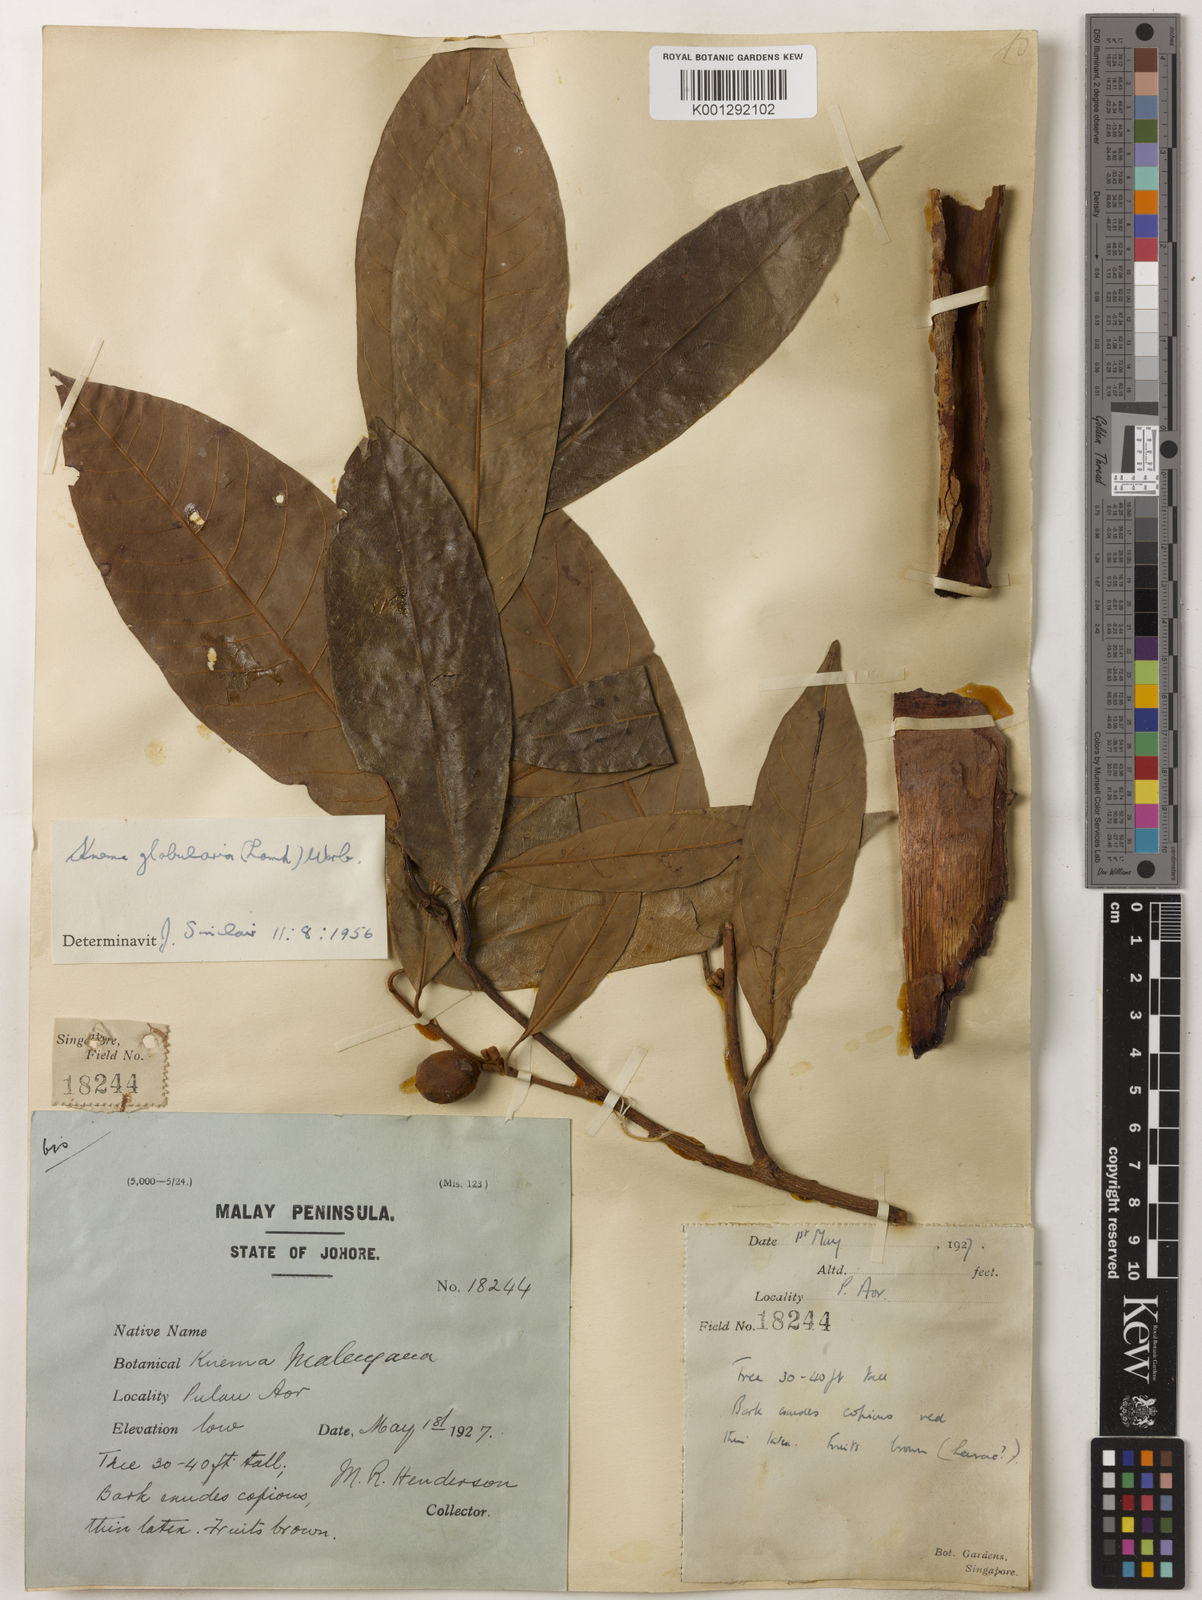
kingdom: Plantae
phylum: Tracheophyta
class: Magnoliopsida
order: Magnoliales
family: Myristicaceae
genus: Knema
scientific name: Knema globularia
